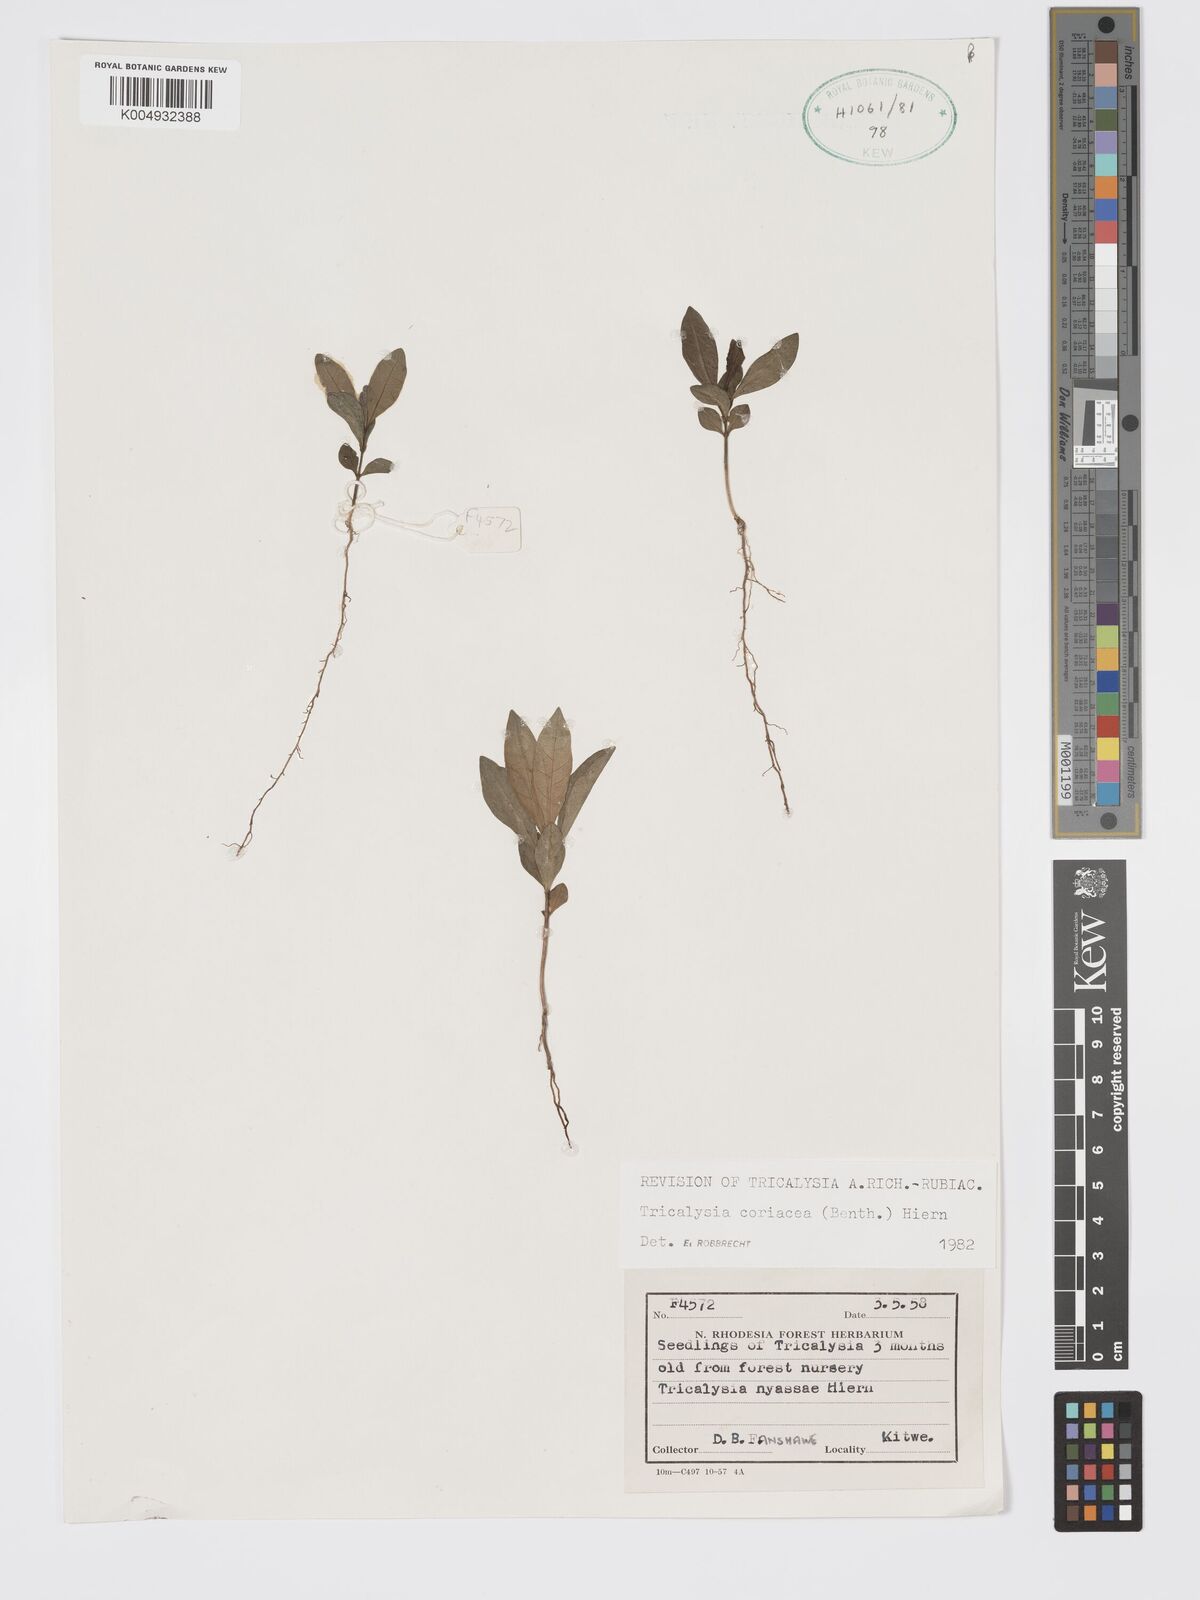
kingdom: Plantae
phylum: Tracheophyta
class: Magnoliopsida
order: Gentianales
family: Rubiaceae
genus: Tricalysia
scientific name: Tricalysia coriacea
